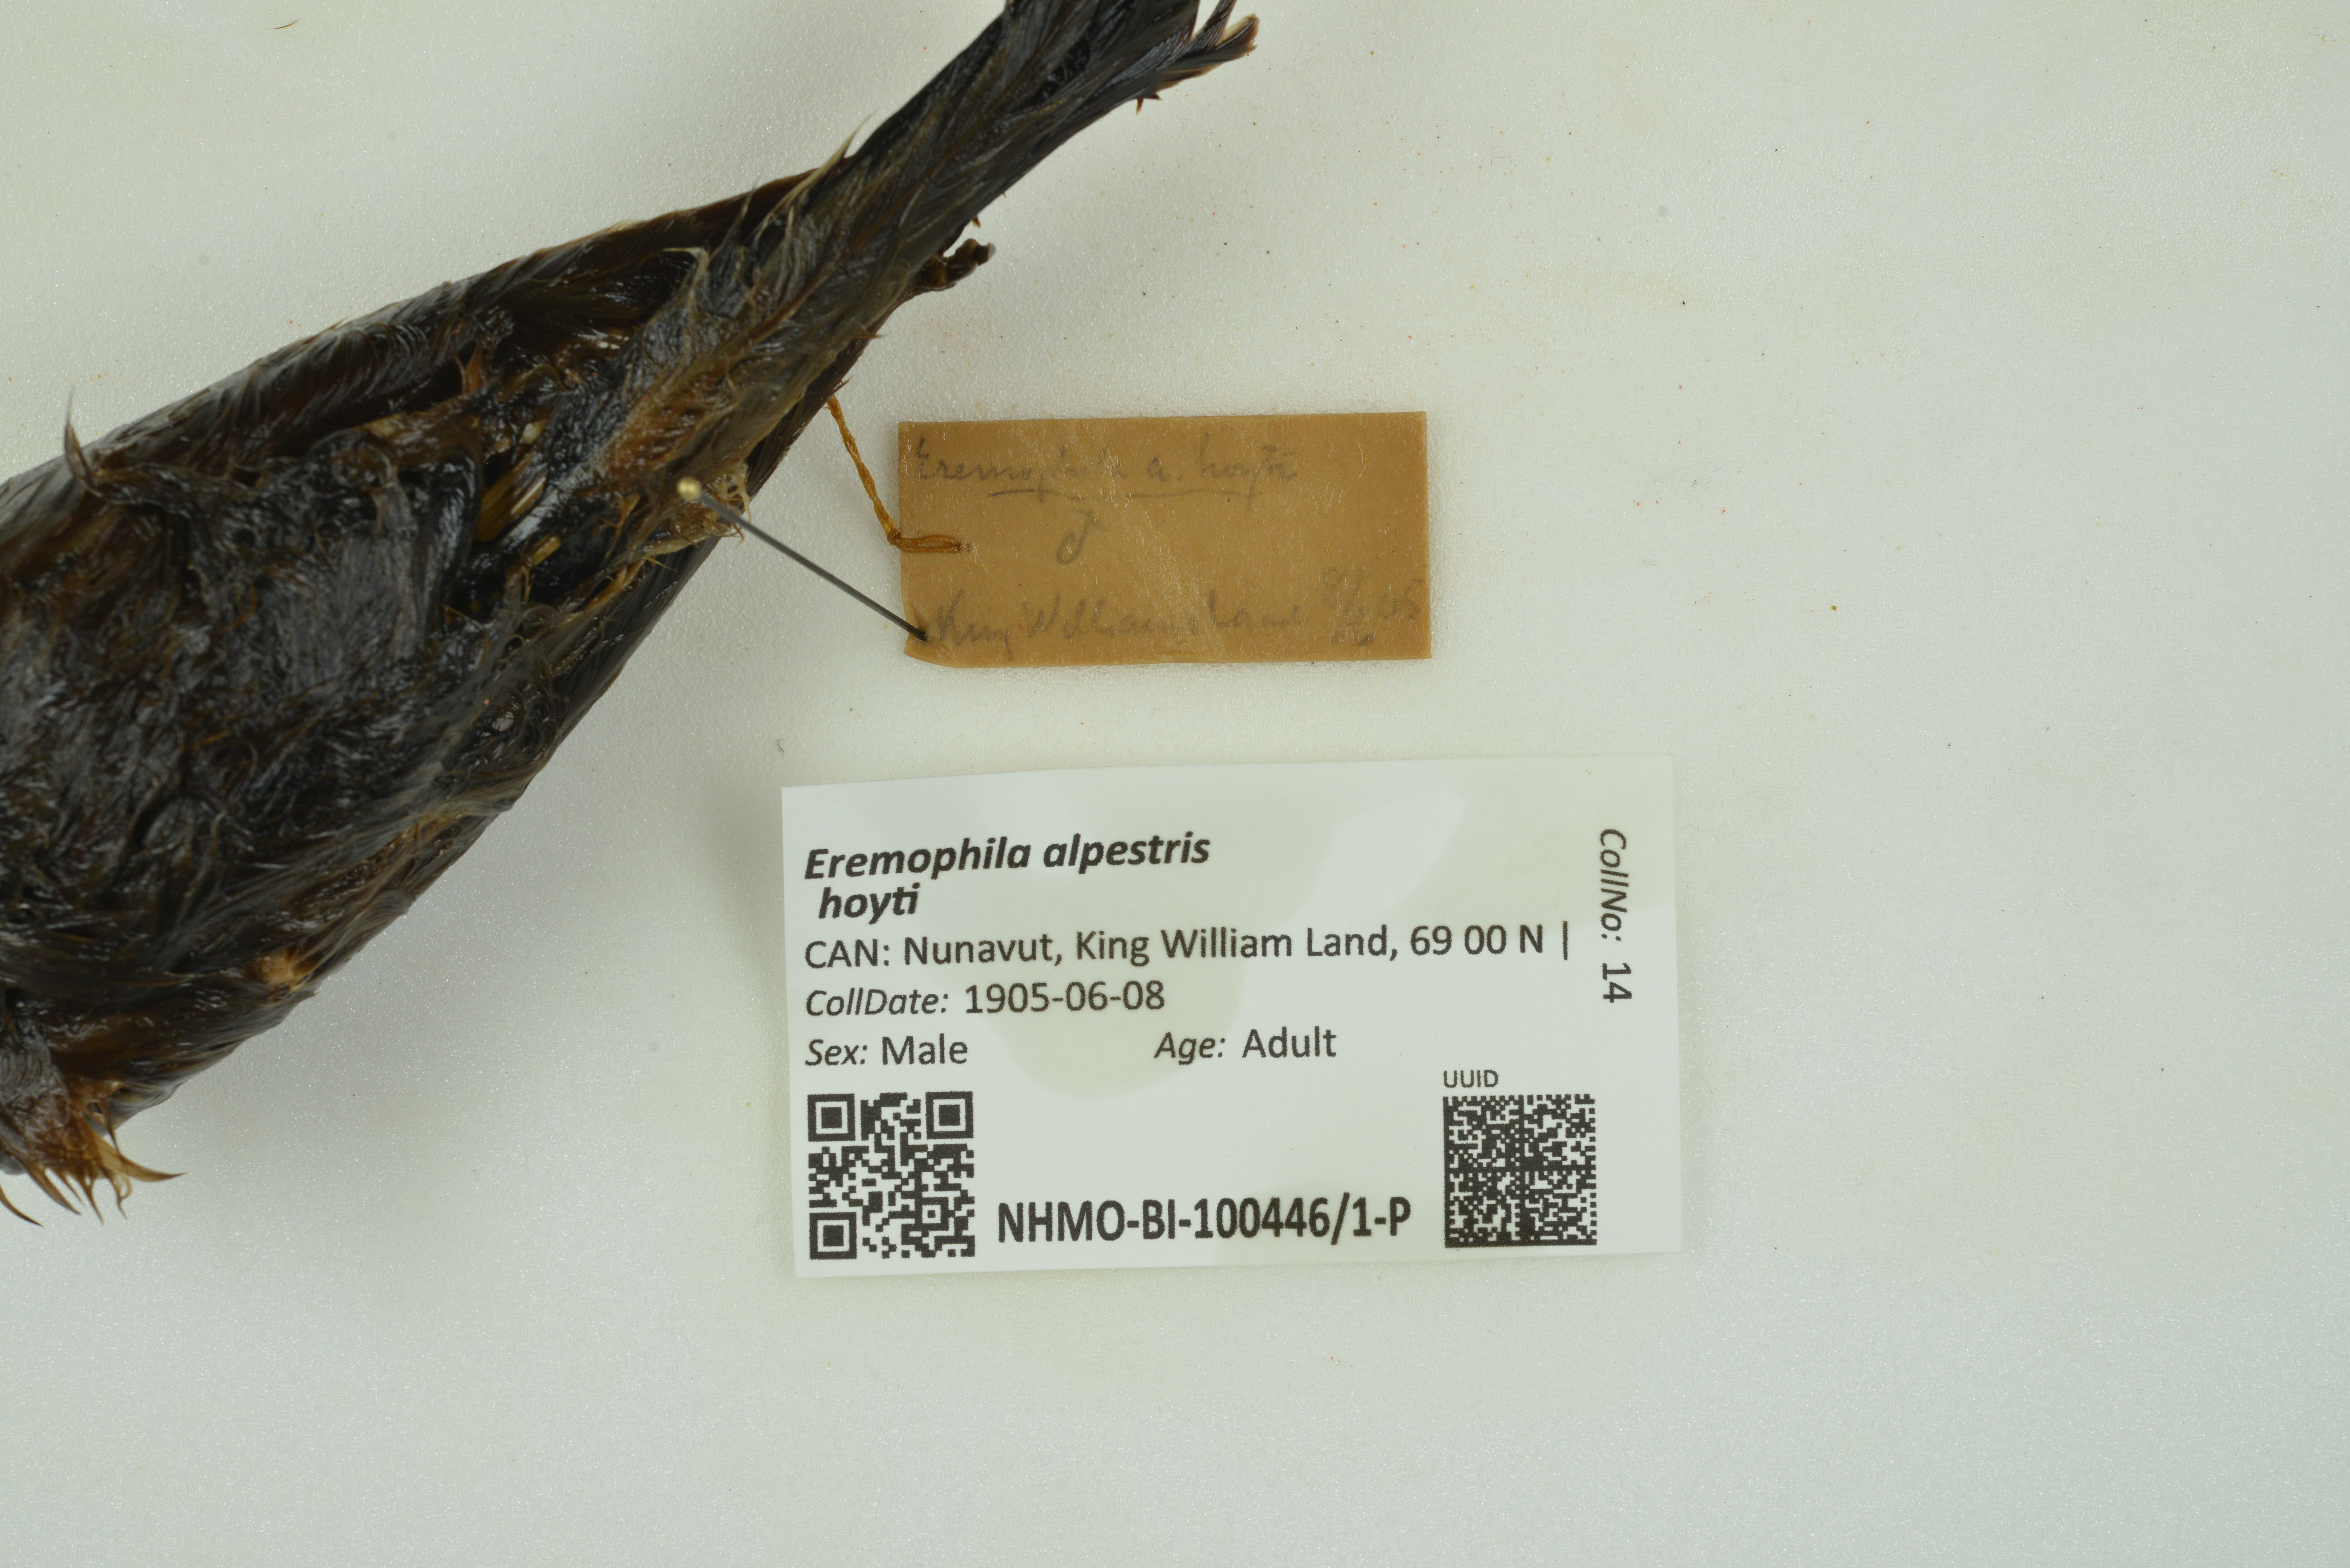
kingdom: Animalia
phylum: Chordata
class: Aves
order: Passeriformes
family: Alaudidae
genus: Eremophila
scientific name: Eremophila alpestris
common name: Horned lark
